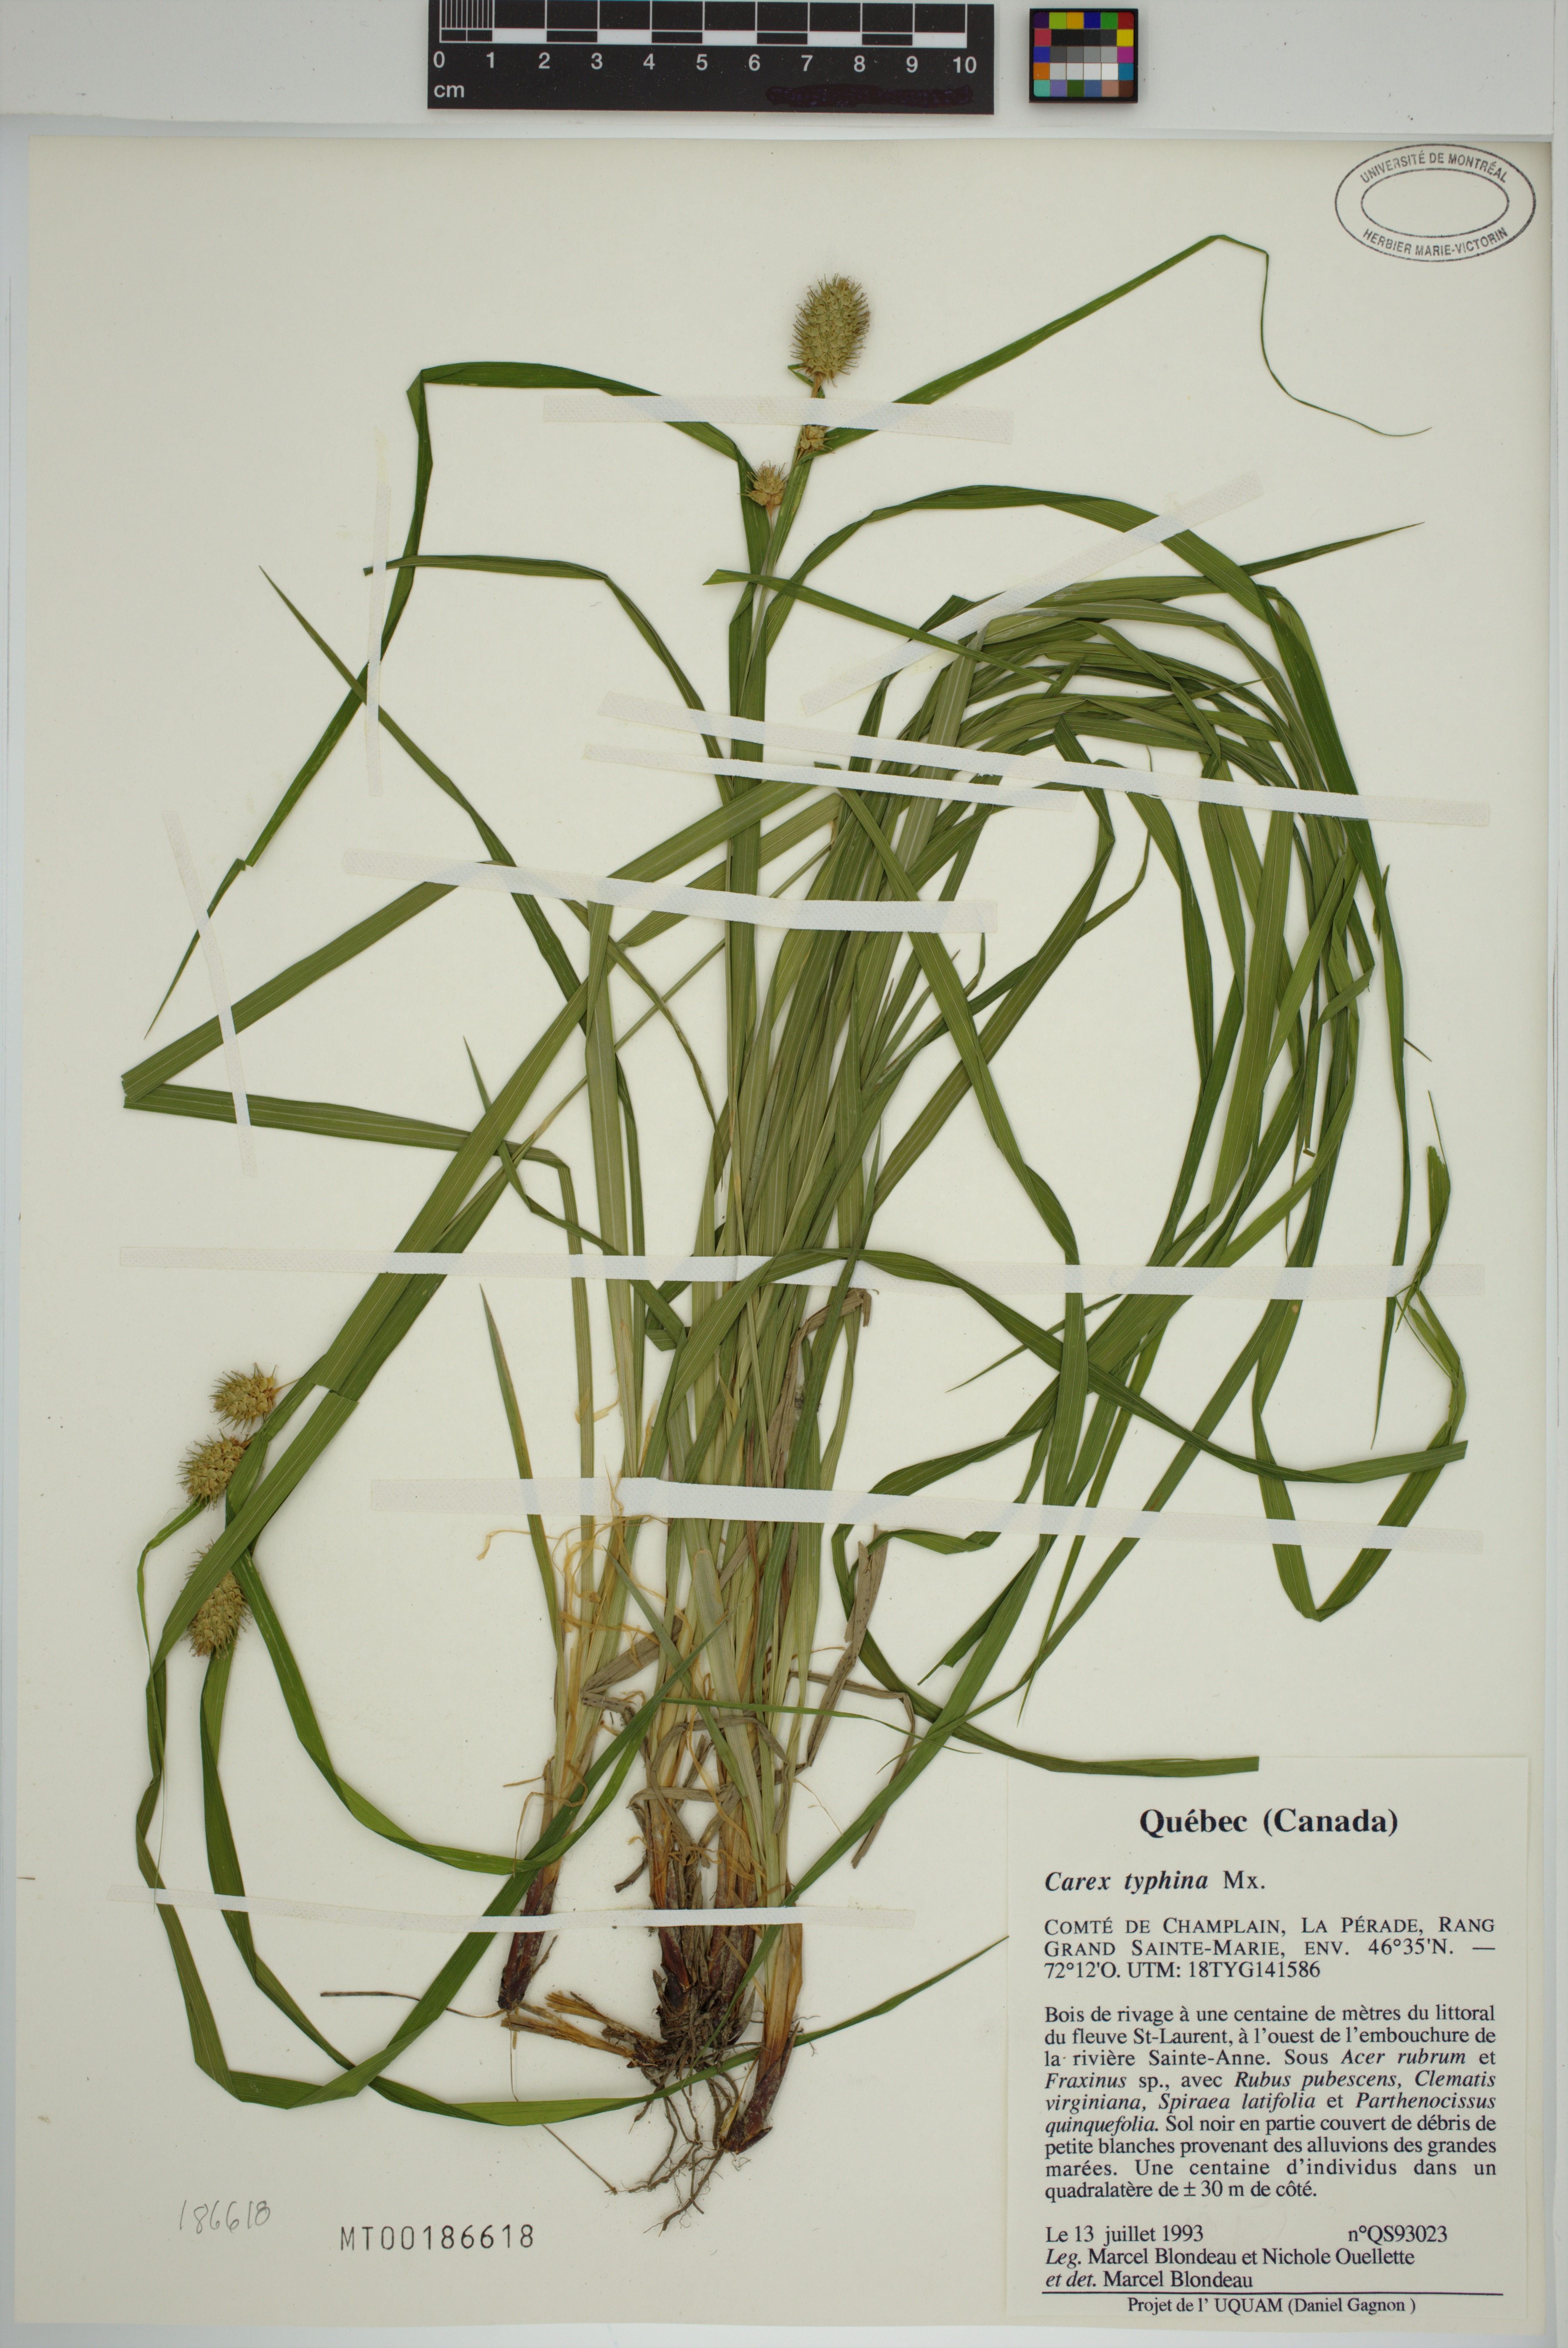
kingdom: Plantae
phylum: Tracheophyta
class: Liliopsida
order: Poales
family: Cyperaceae
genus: Carex
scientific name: Carex typhina
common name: Cattail sedge
